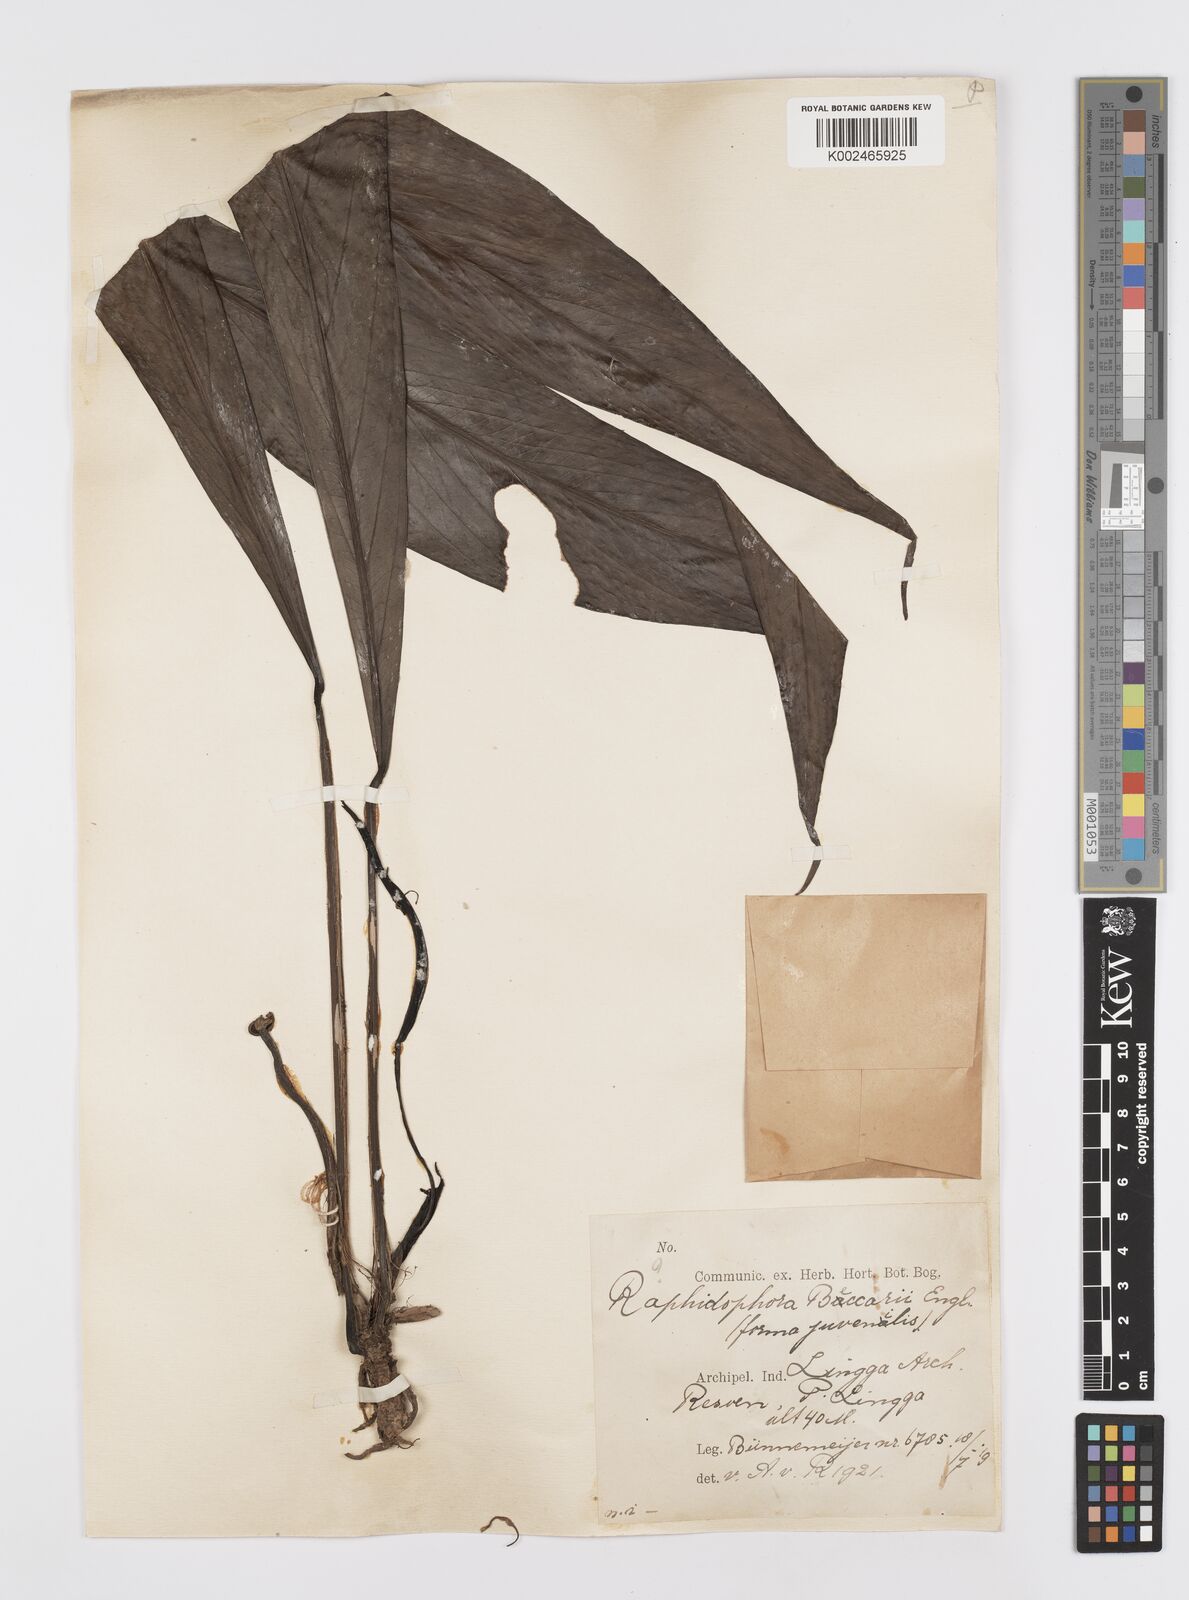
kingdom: Plantae
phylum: Tracheophyta
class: Liliopsida
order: Alismatales
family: Araceae
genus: Rhaphidophora
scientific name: Rhaphidophora beccarii
